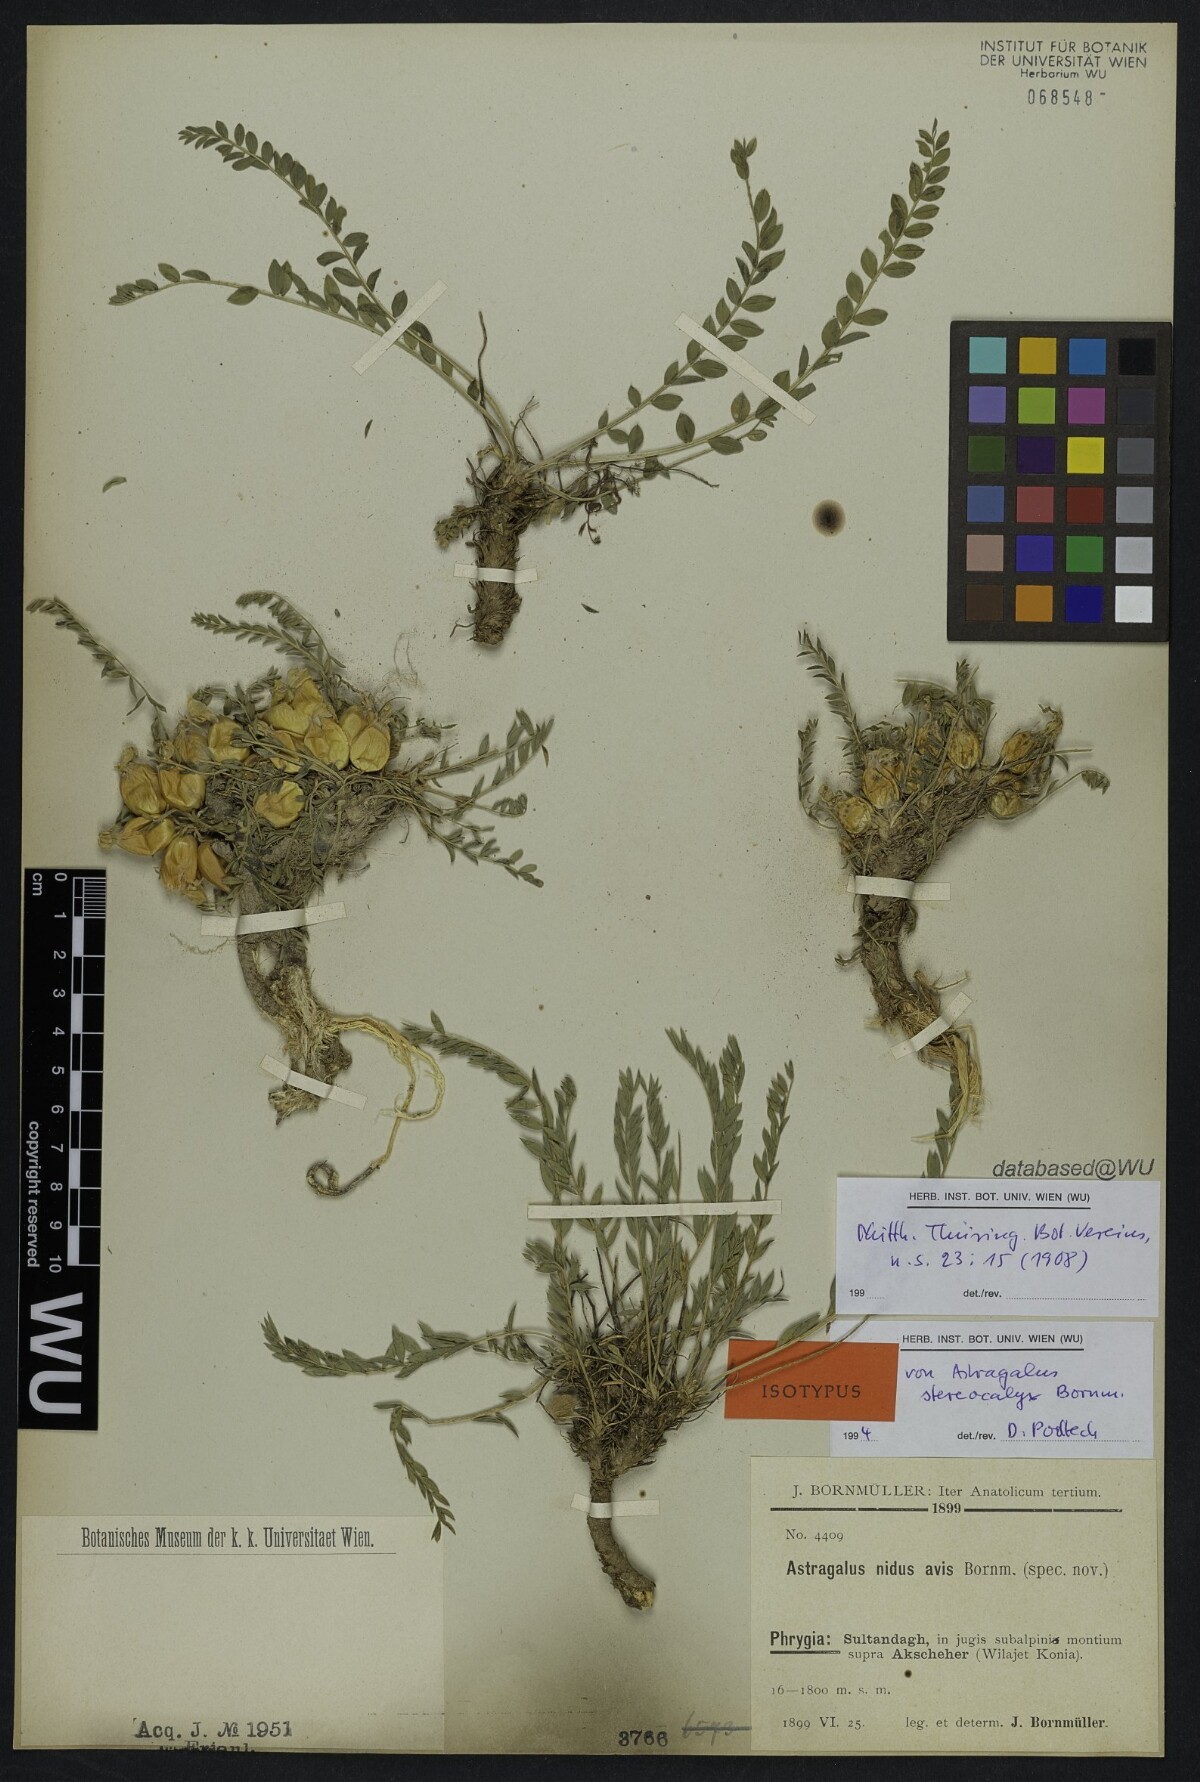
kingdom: Plantae
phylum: Tracheophyta
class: Magnoliopsida
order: Fabales
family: Fabaceae
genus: Astragalus
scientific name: Astragalus physocalyx
